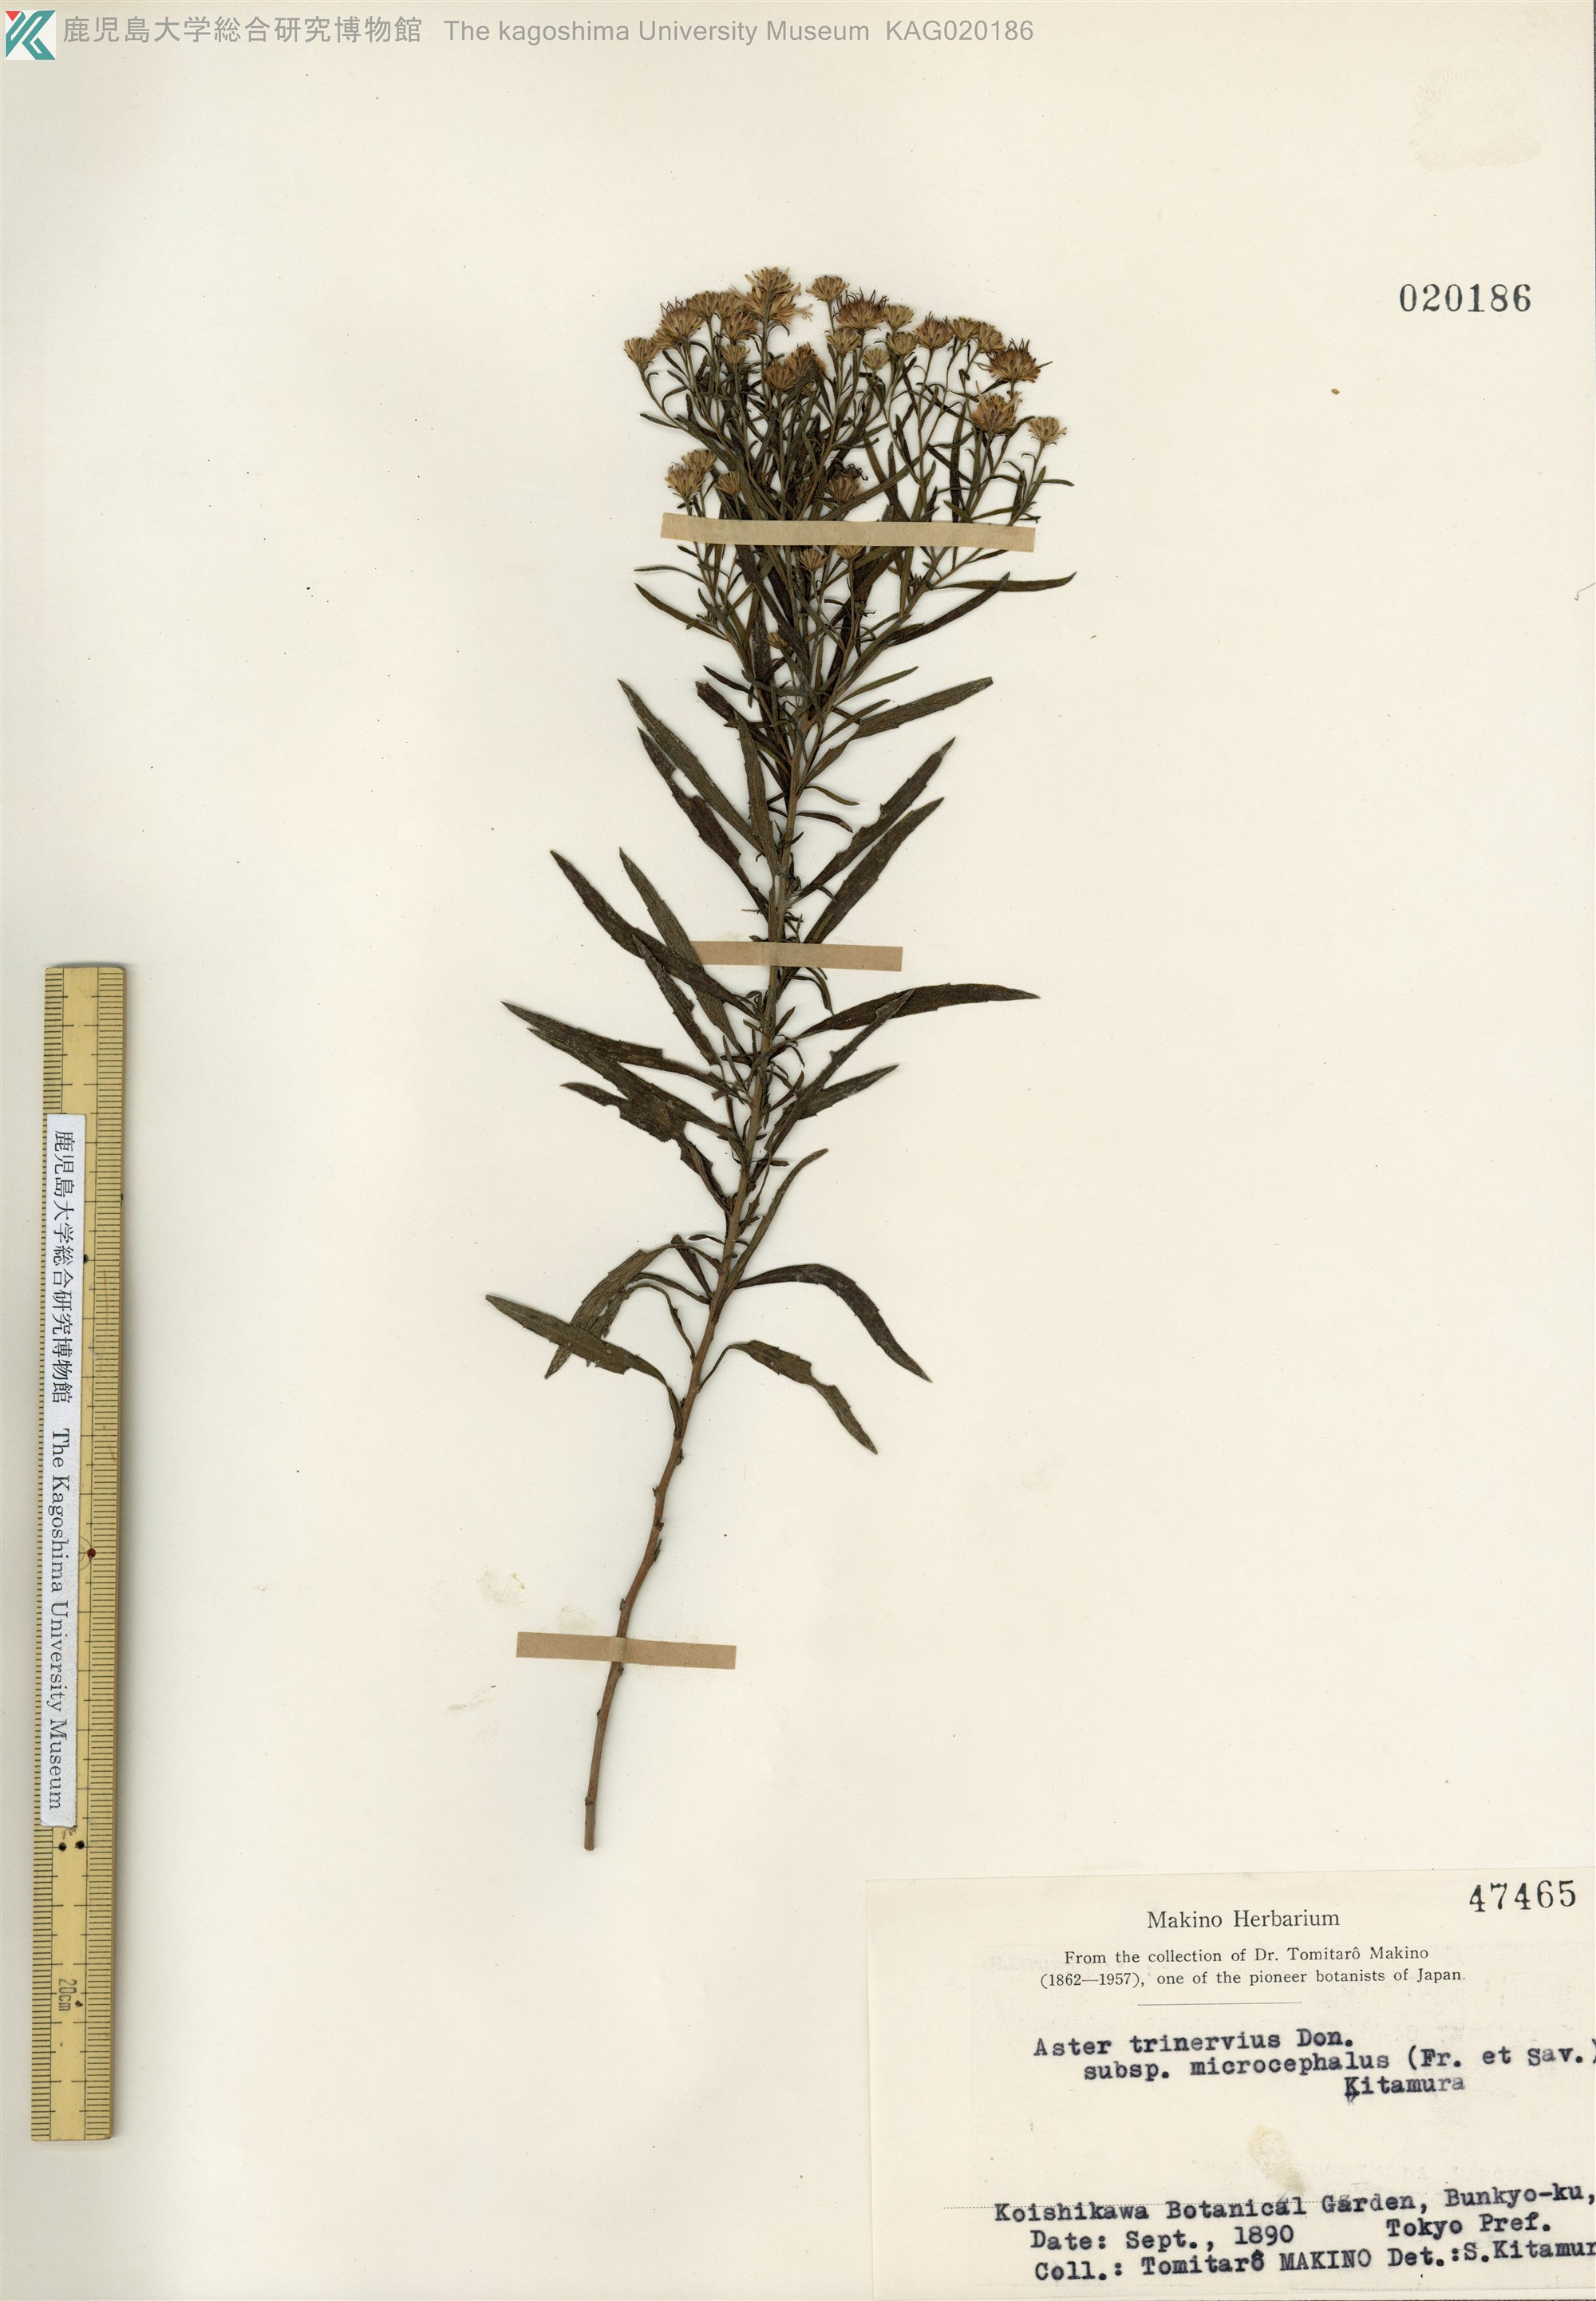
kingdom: Plantae
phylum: Tracheophyta
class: Magnoliopsida
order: Asterales
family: Asteraceae
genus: Aster
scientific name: Aster microcephalus
